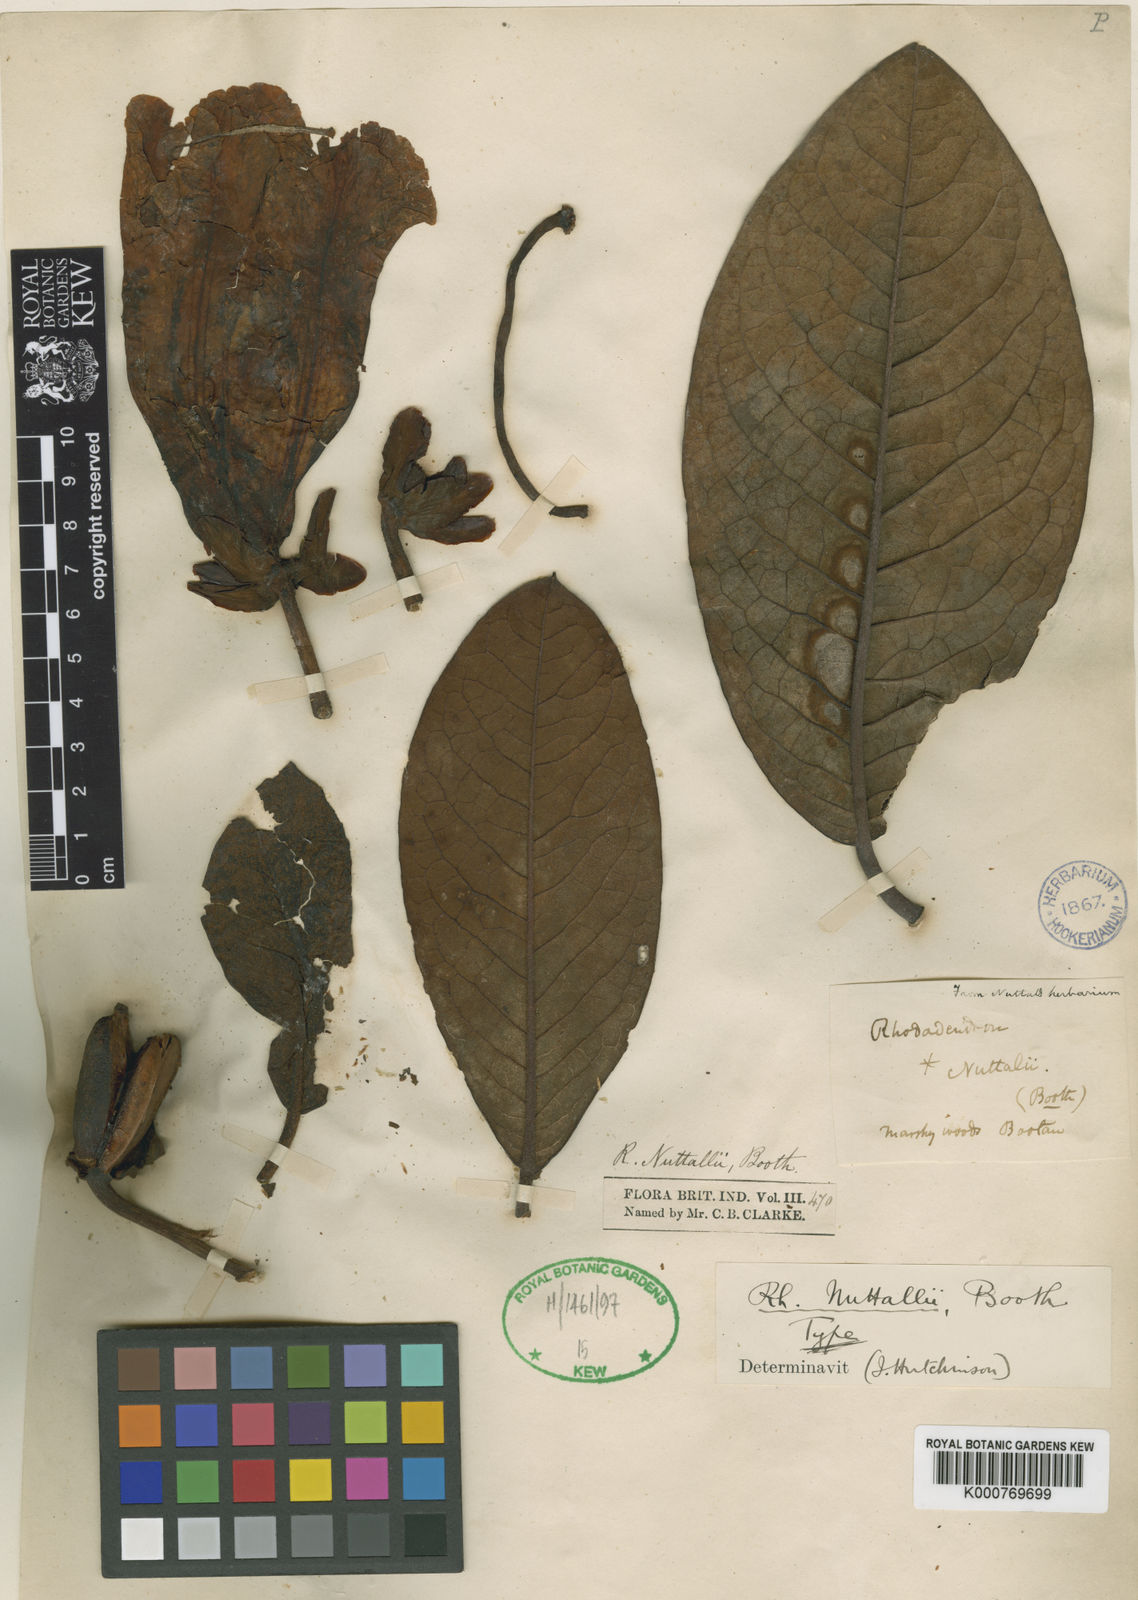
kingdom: Plantae
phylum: Tracheophyta
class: Magnoliopsida
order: Ericales
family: Ericaceae
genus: Rhododendron
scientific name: Rhododendron nuttallii
